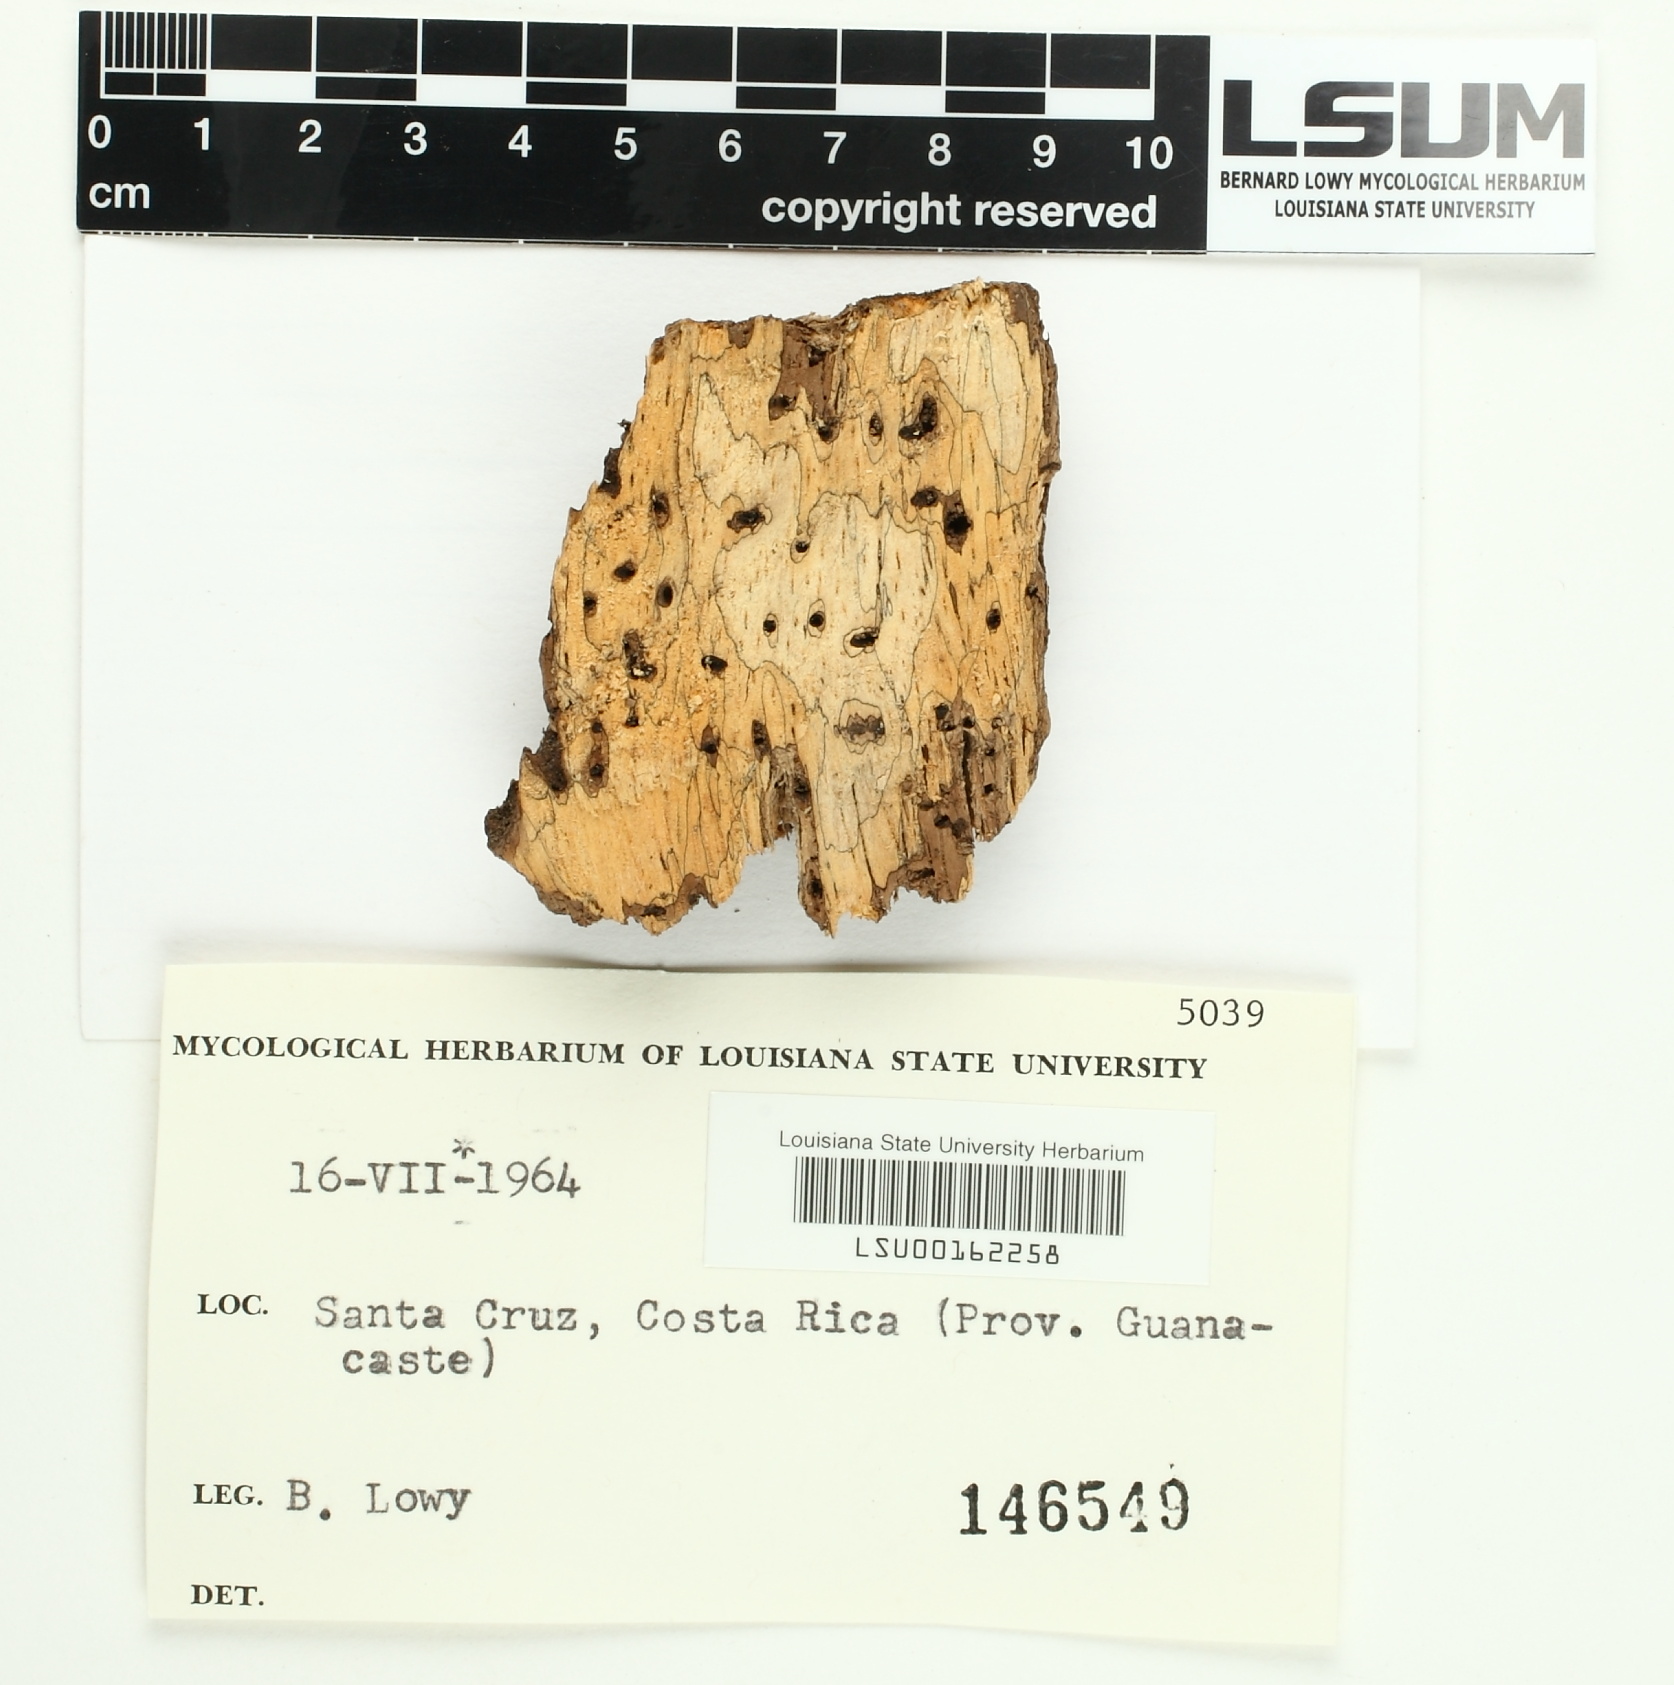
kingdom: Fungi
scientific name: Fungi
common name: Fungi
